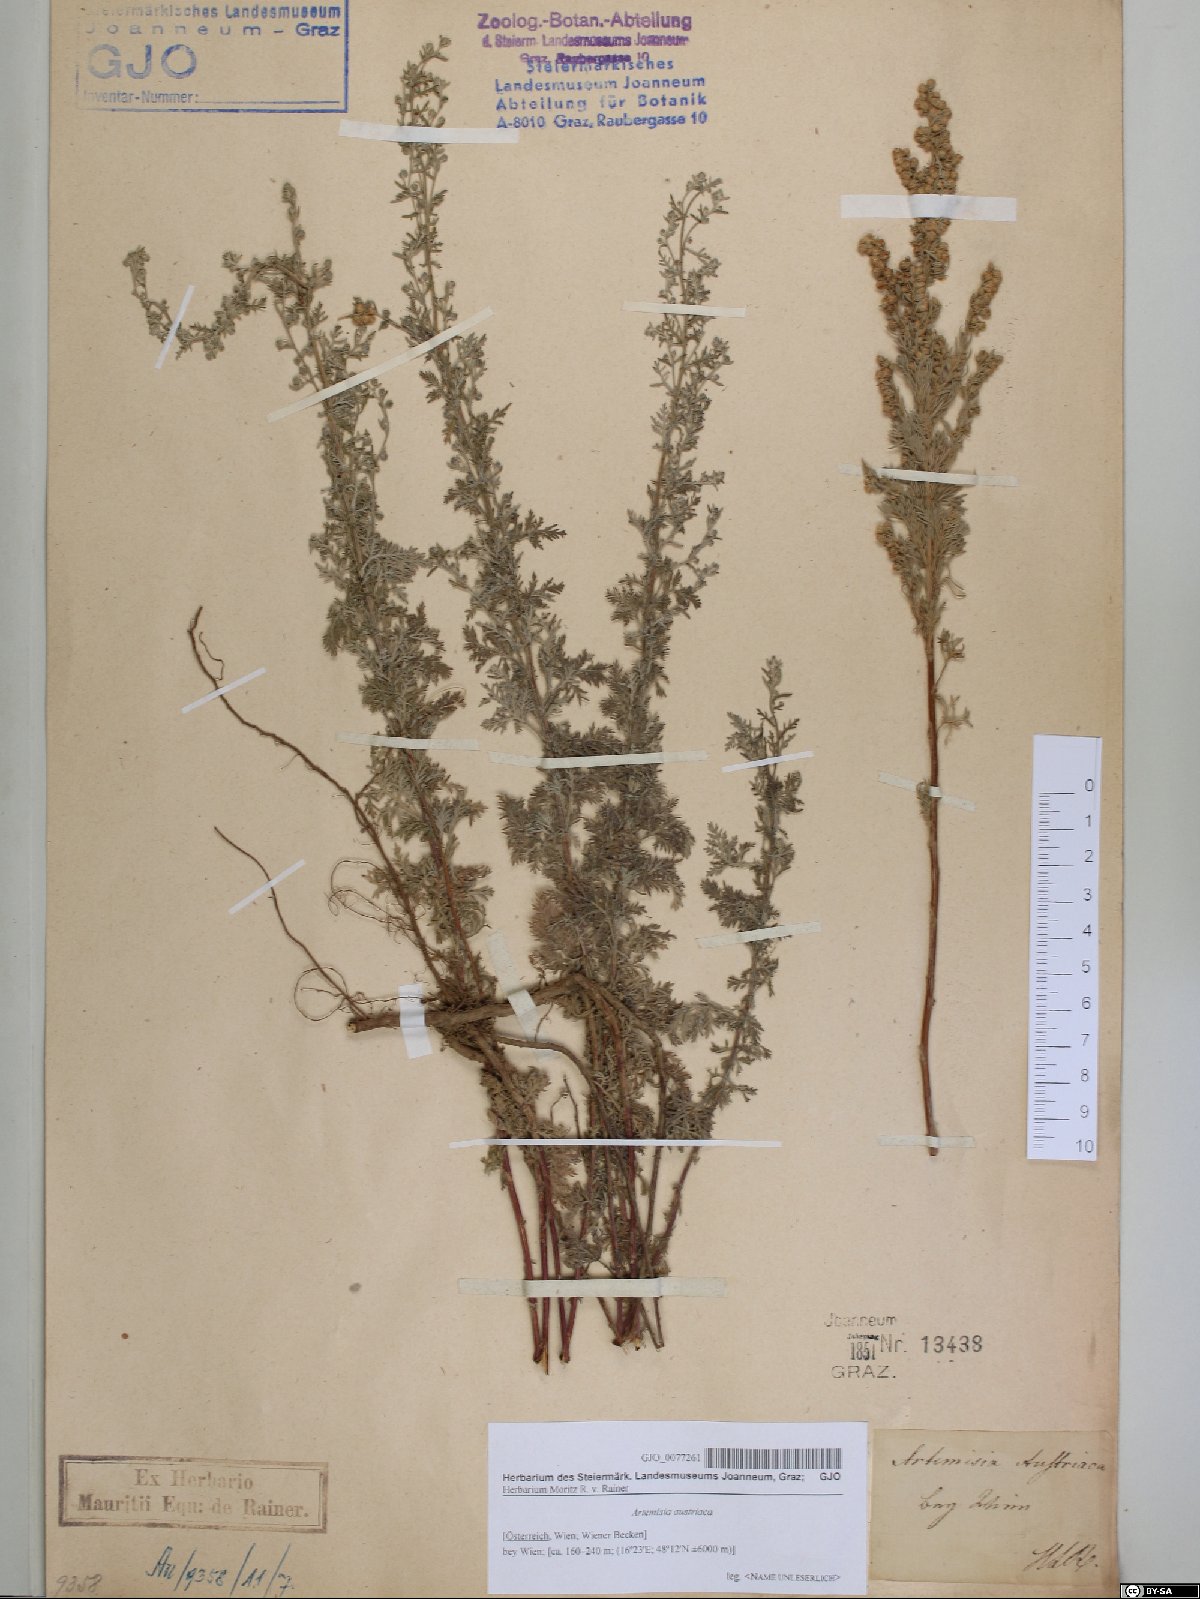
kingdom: Plantae
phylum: Tracheophyta
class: Magnoliopsida
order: Asterales
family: Asteraceae
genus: Artemisia
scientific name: Artemisia pontica
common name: Roman wormwood
